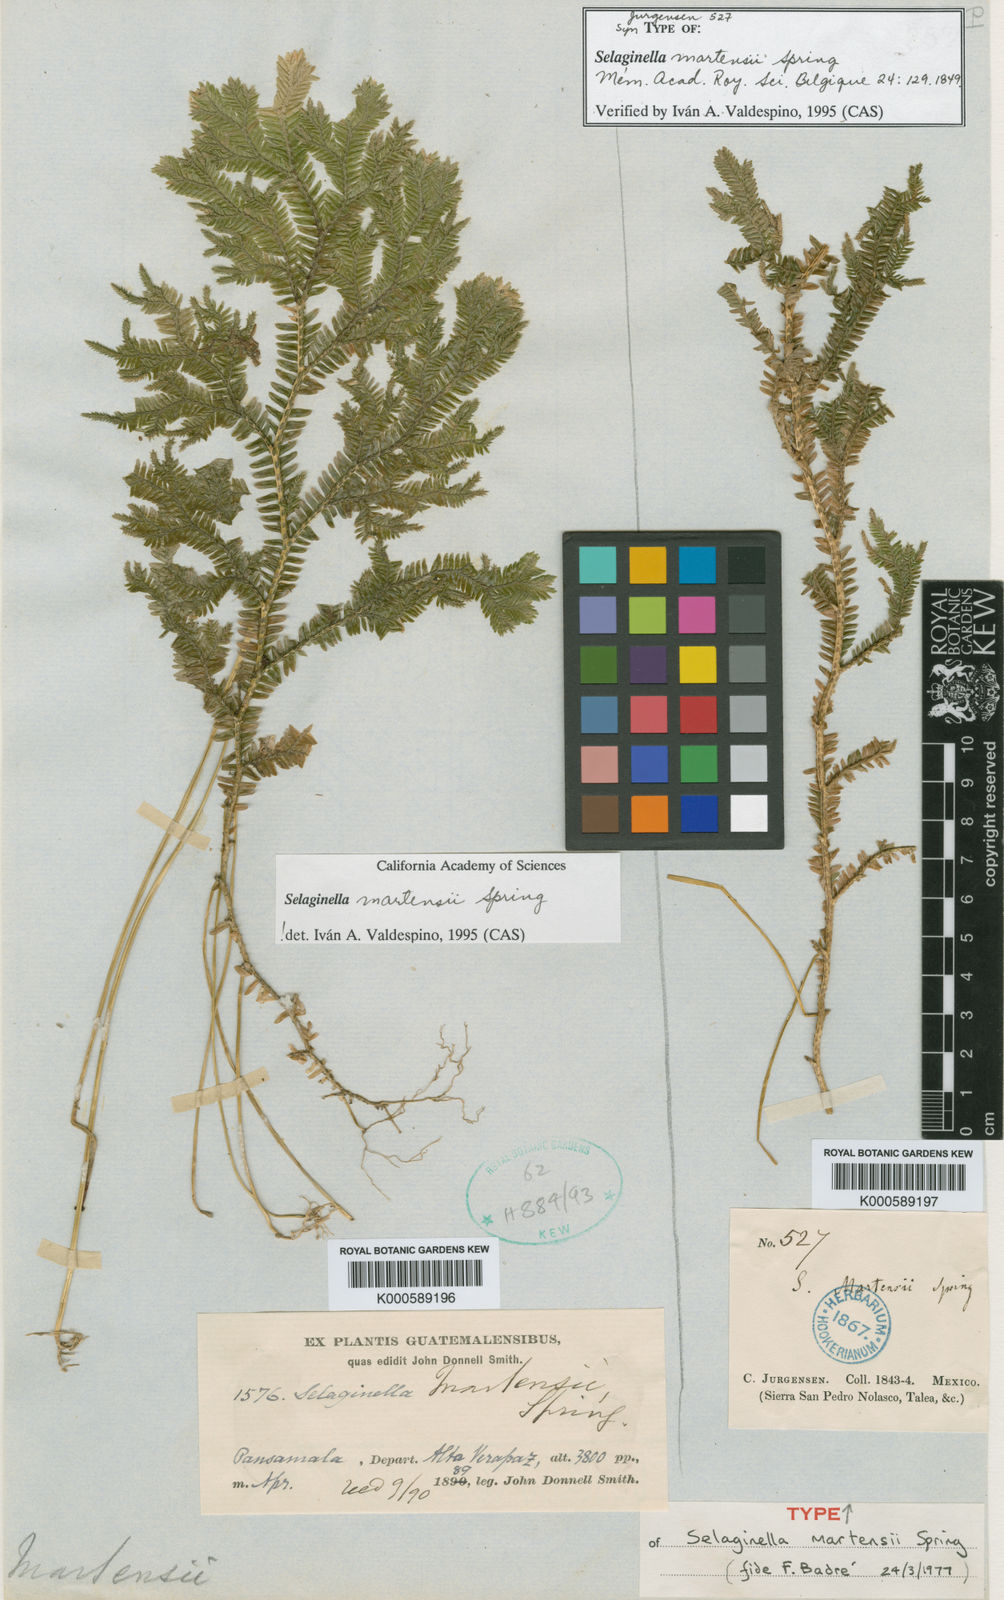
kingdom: Plantae
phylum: Tracheophyta
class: Lycopodiopsida
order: Selaginellales
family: Selaginellaceae
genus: Selaginella
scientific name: Selaginella martensii
